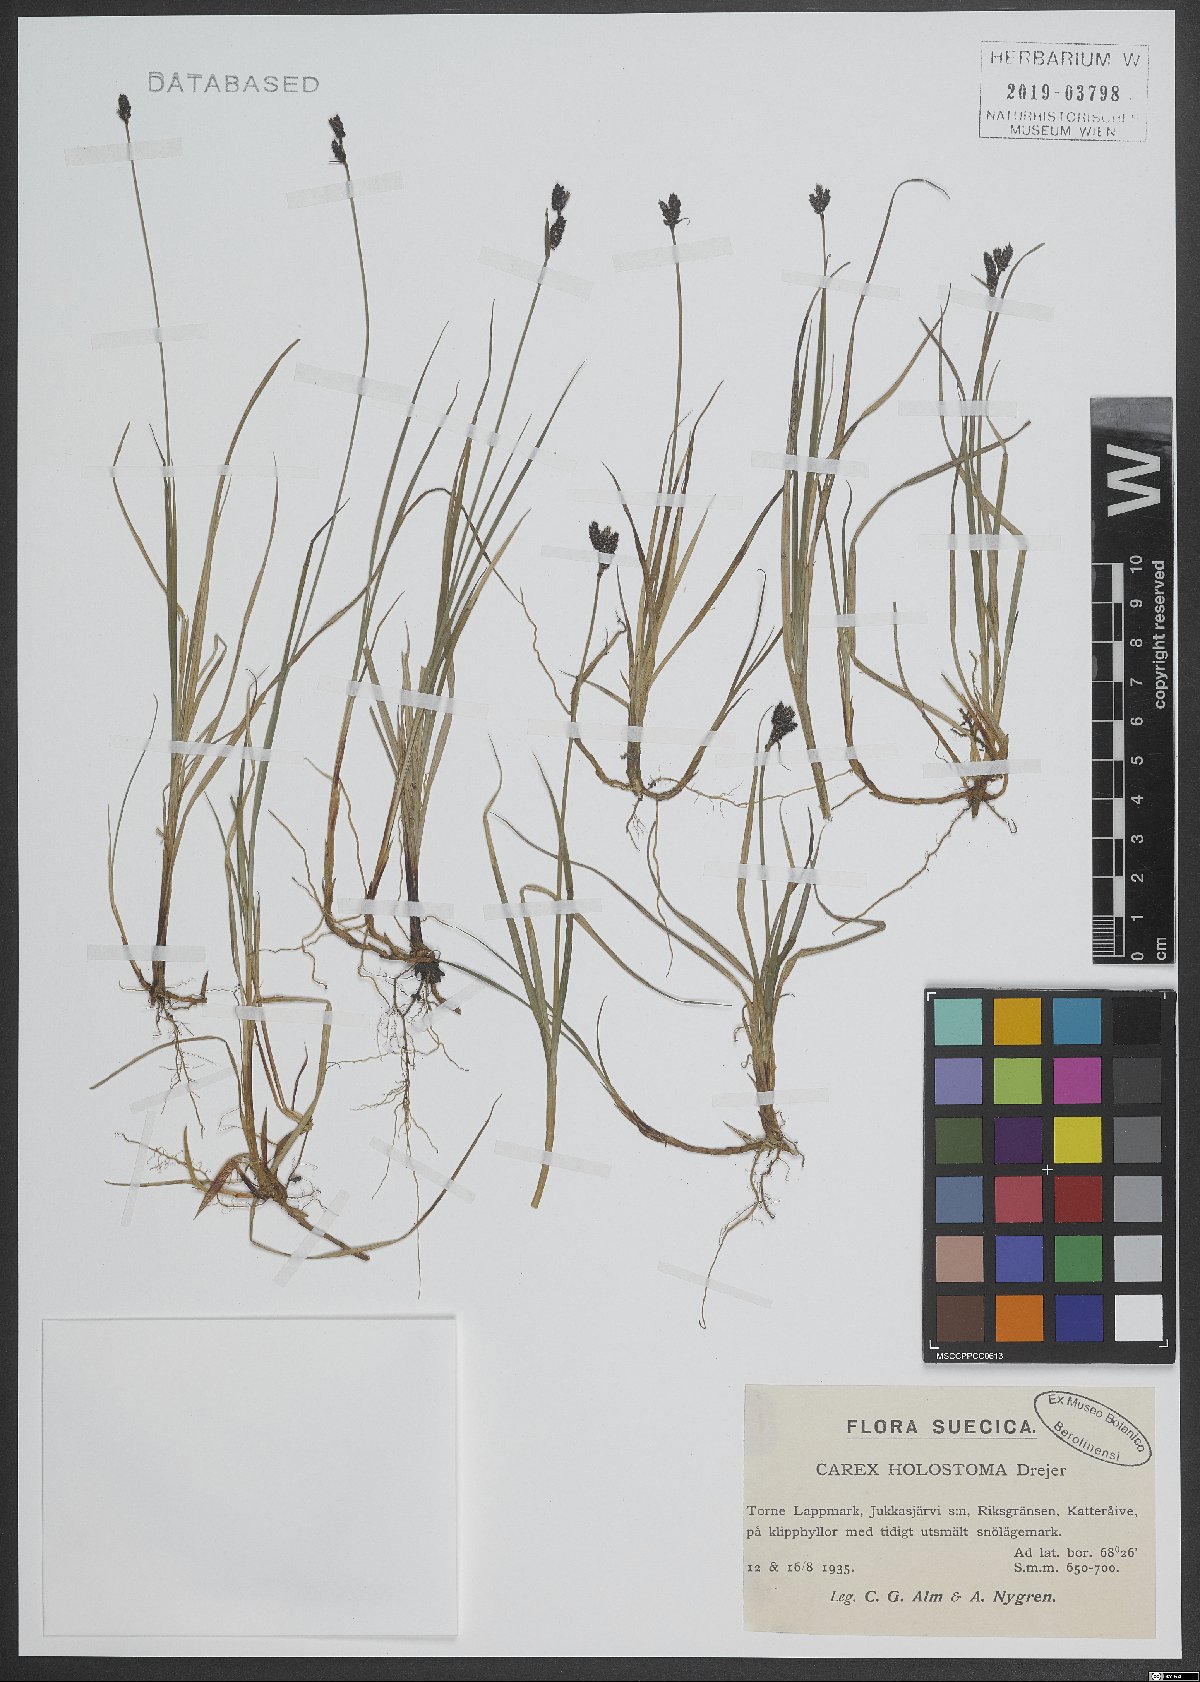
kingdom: Plantae
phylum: Tracheophyta
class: Magnoliopsida
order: Malpighiales
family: Linaceae
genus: Linum
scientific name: Linum usitatissimum
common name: Flax
